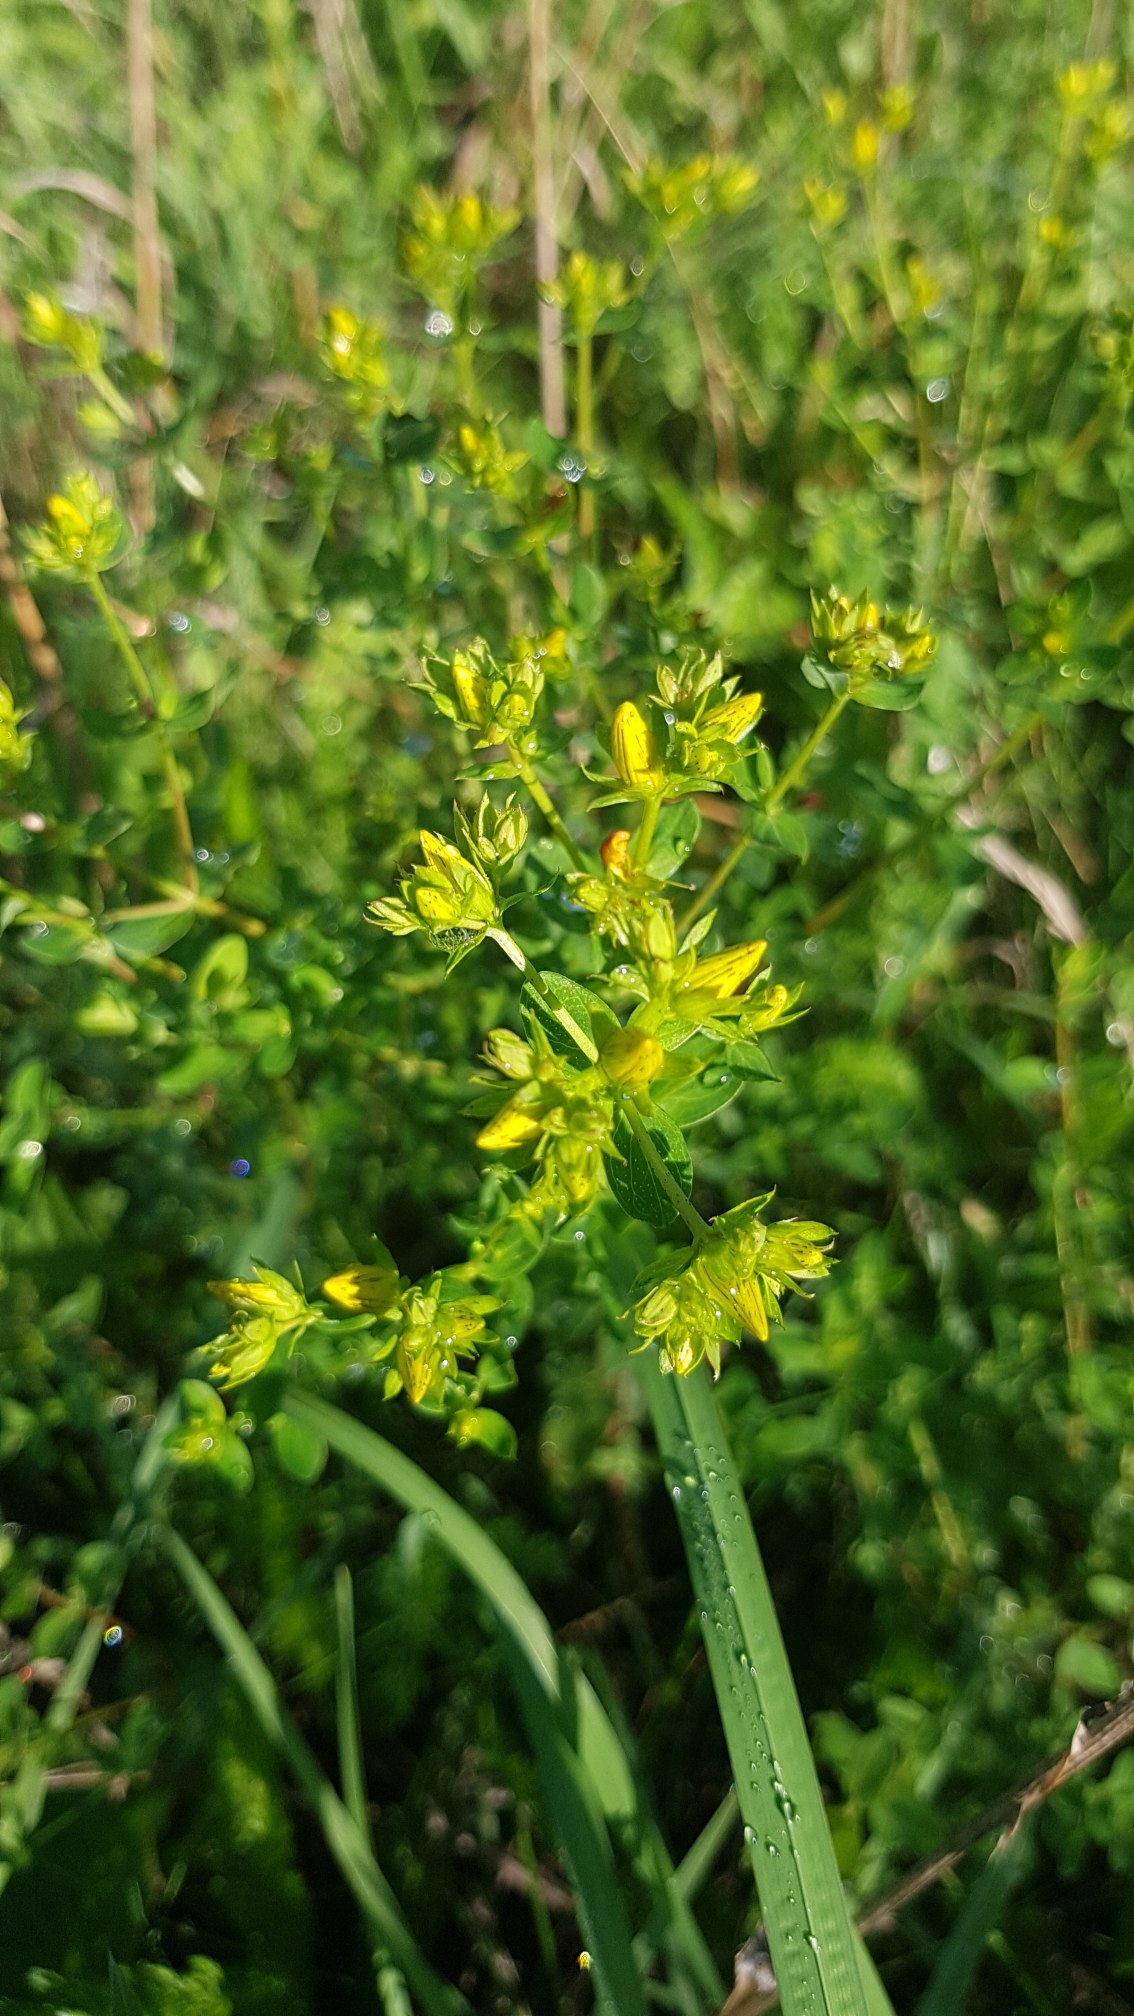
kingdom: Plantae
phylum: Tracheophyta
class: Magnoliopsida
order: Malpighiales
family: Hypericaceae
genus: Hypericum
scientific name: Hypericum perforatum
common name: Prikbladet perikon
